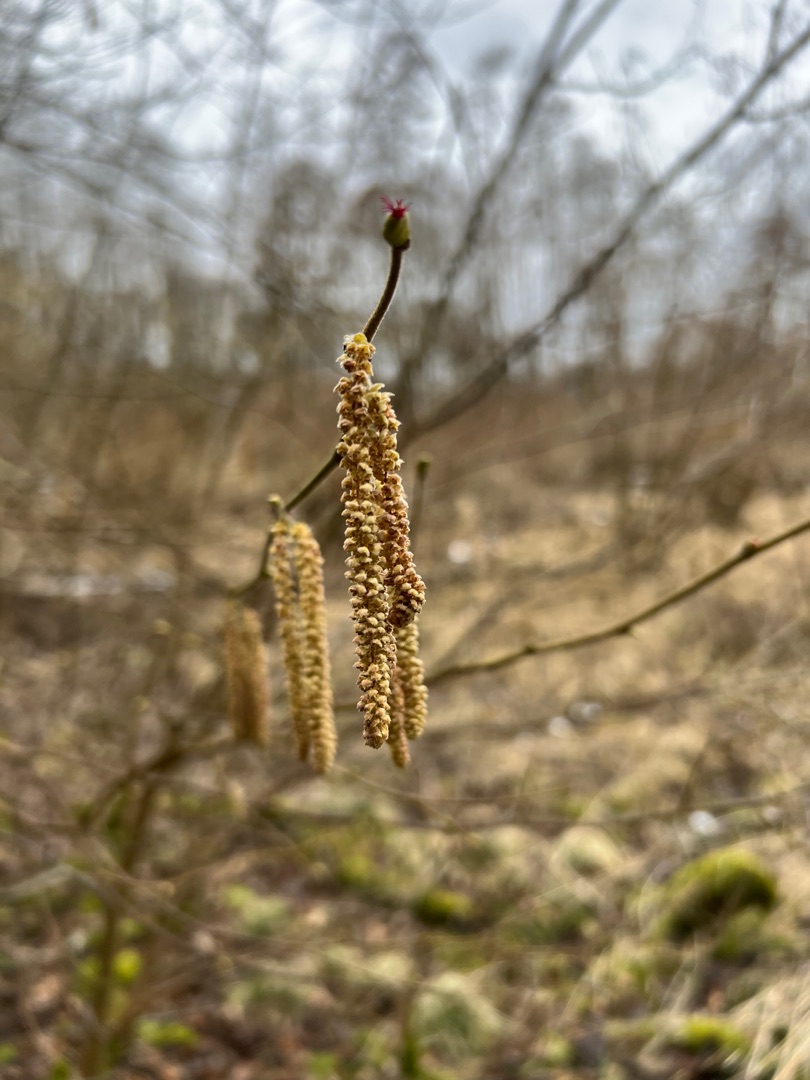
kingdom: Plantae
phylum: Tracheophyta
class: Magnoliopsida
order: Fagales
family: Betulaceae
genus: Corylus
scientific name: Corylus avellana
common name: Hassel
